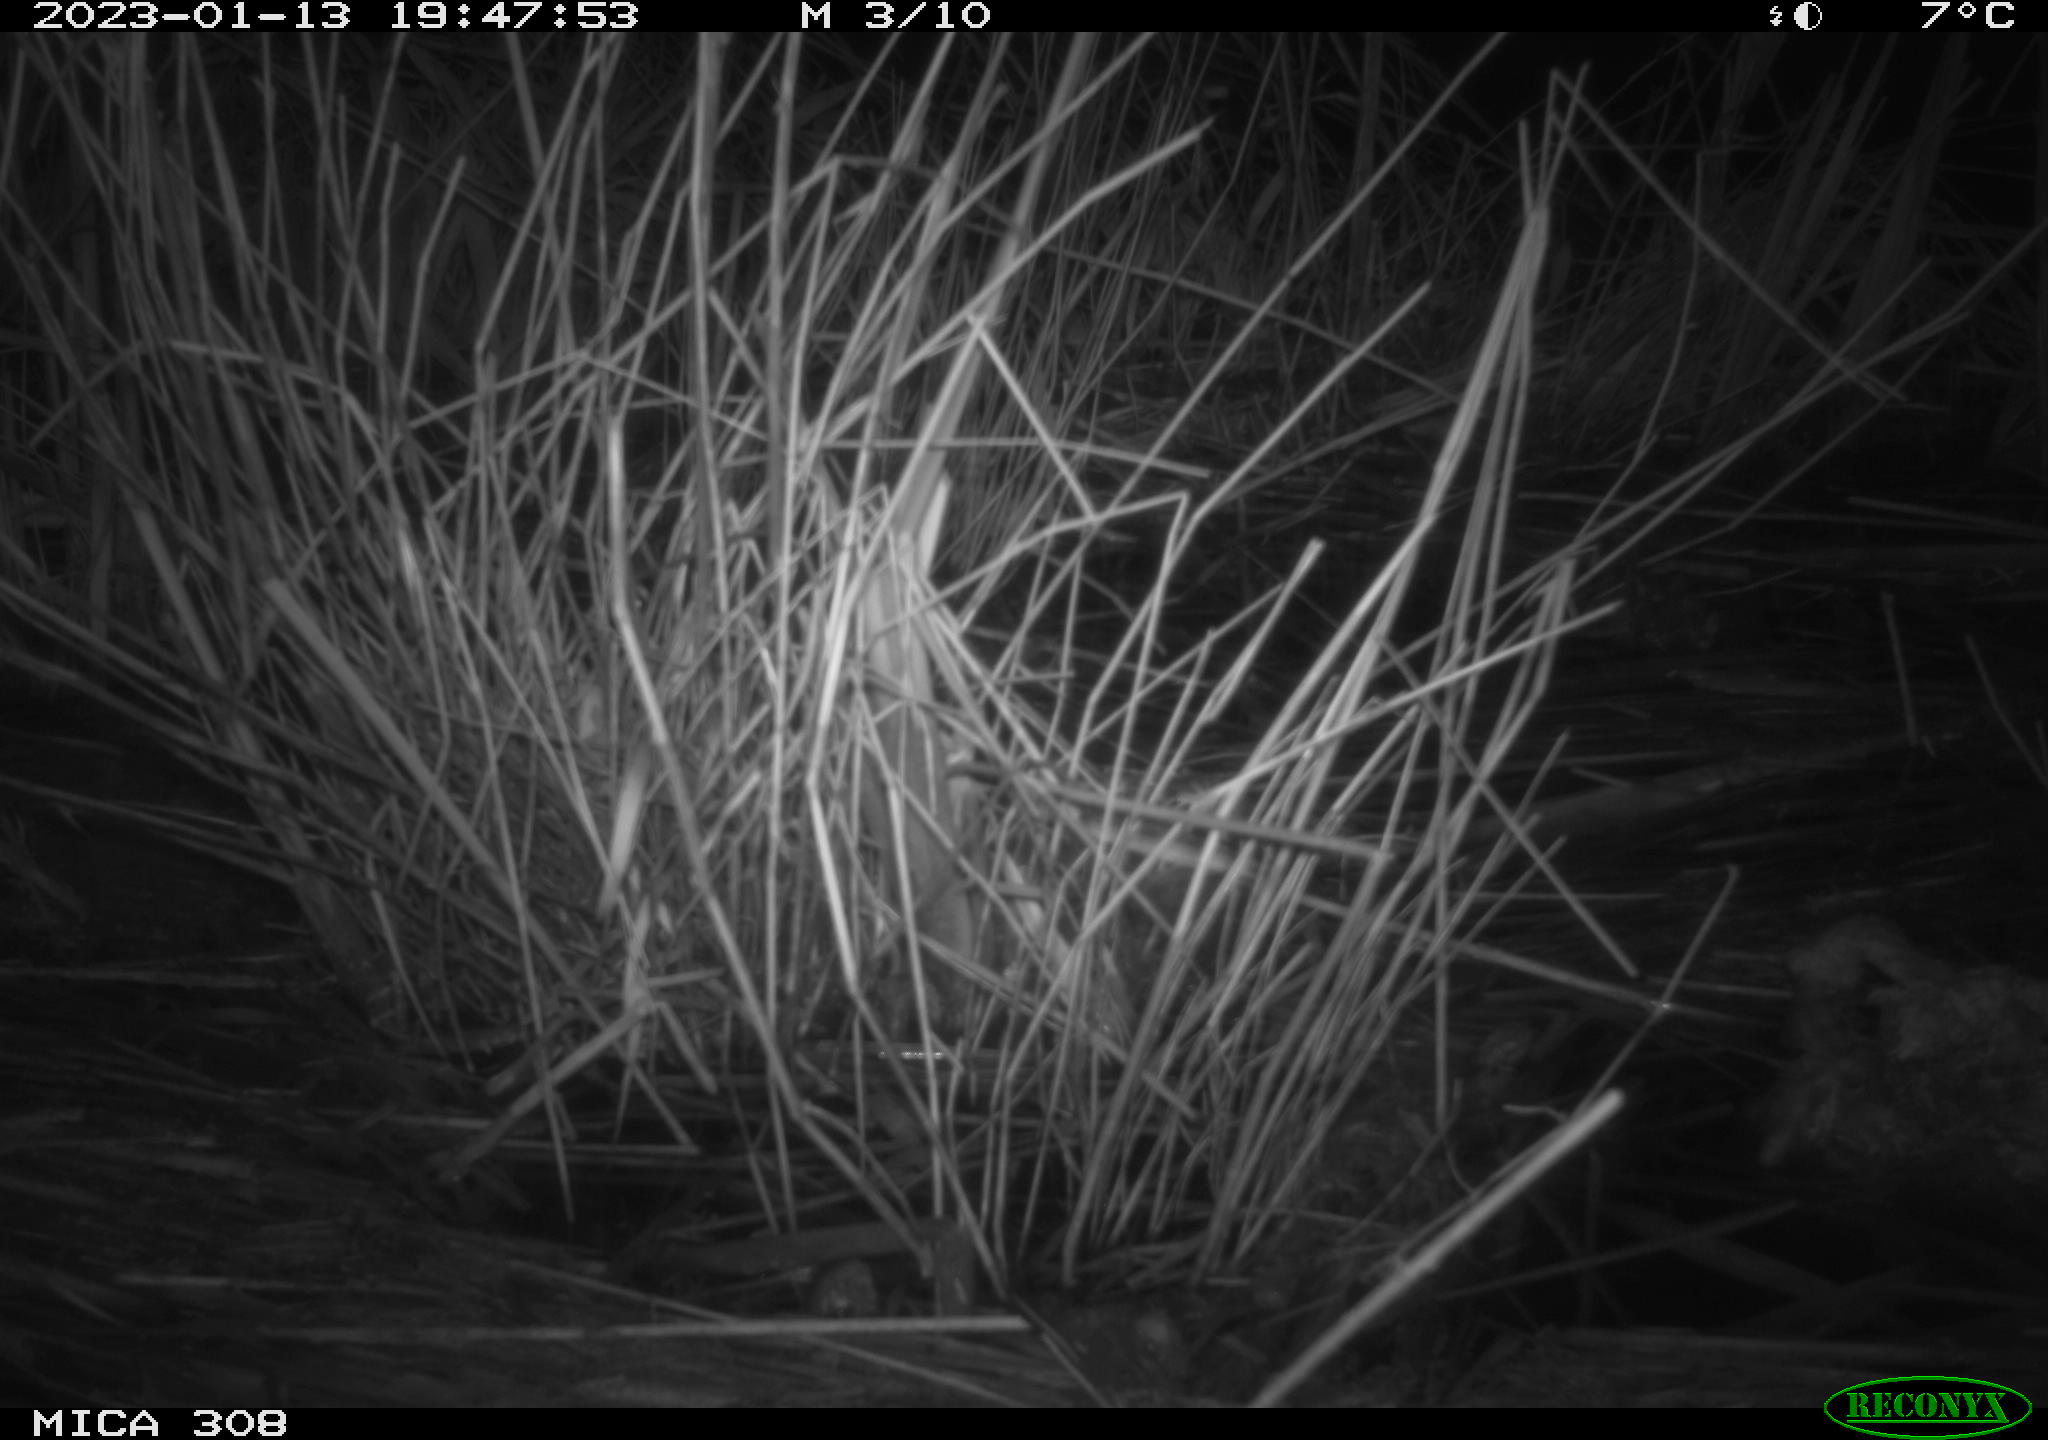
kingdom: Animalia
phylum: Chordata
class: Mammalia
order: Rodentia
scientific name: Rodentia
